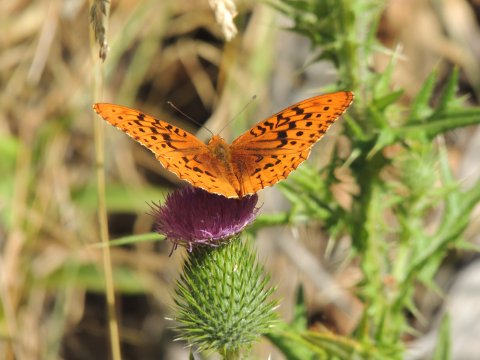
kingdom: Animalia
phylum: Arthropoda
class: Insecta
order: Lepidoptera
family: Nymphalidae
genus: Speyeria
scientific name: Speyeria cybele
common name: Great Spangled Fritillary
